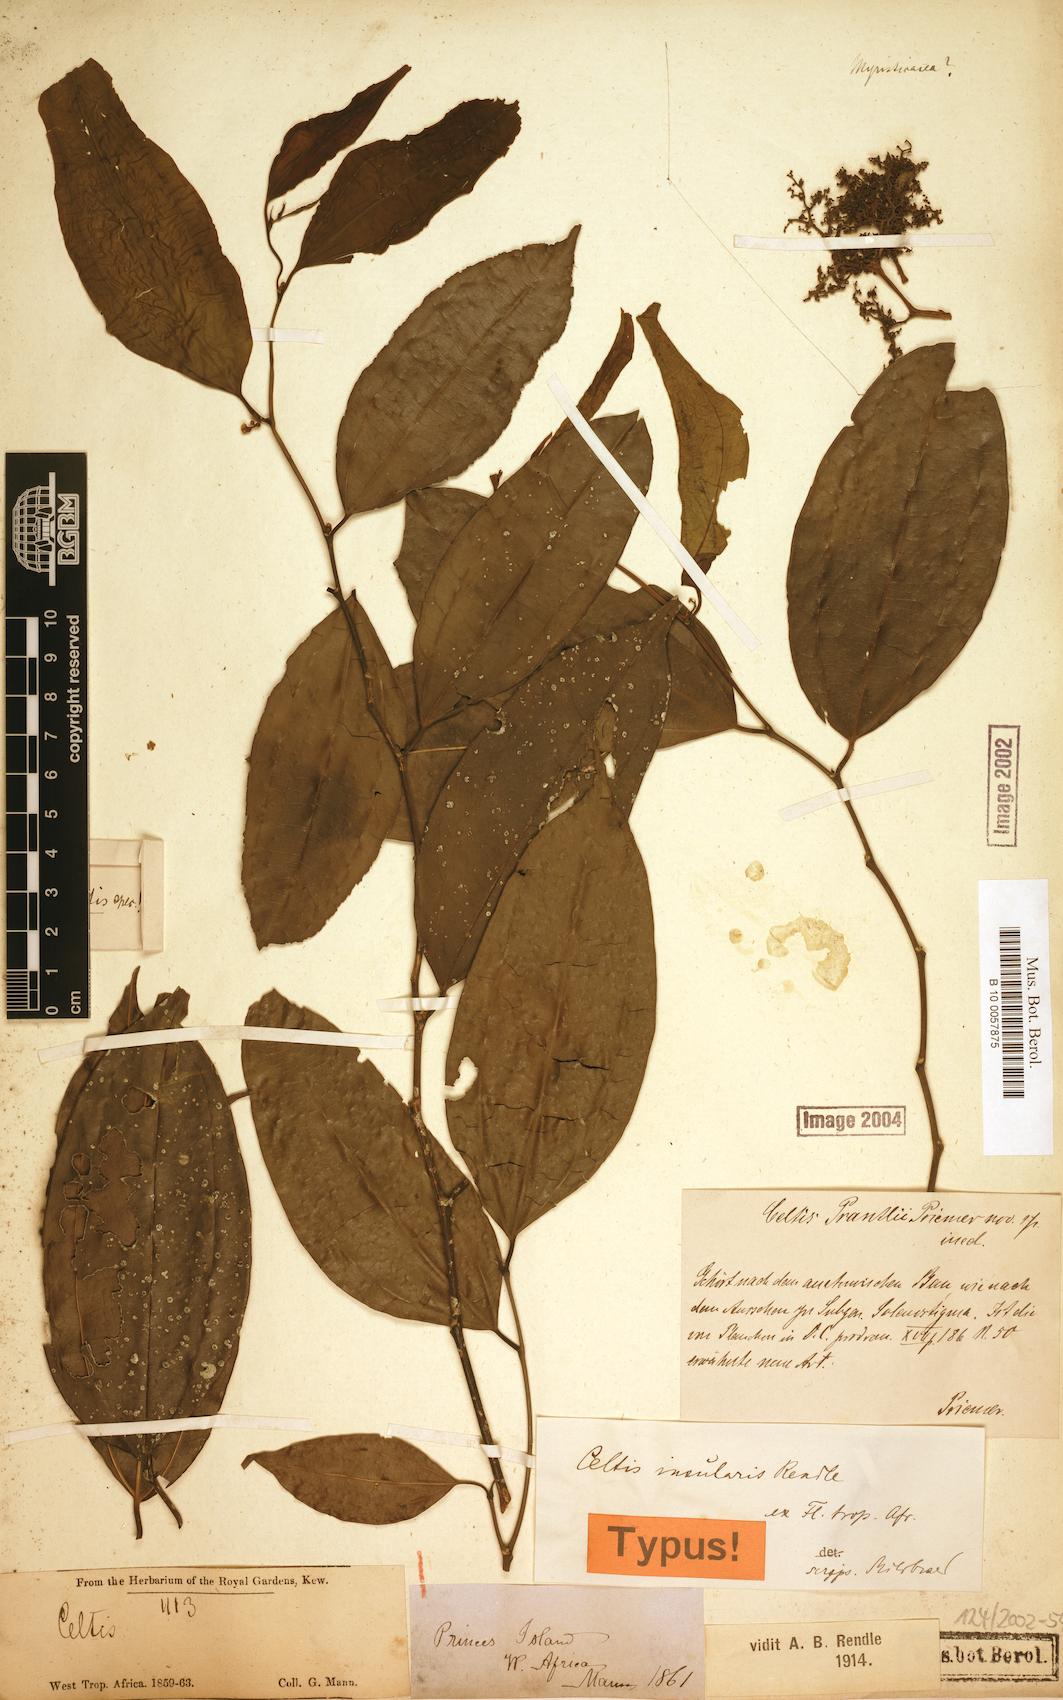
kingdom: Plantae
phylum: Tracheophyta
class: Magnoliopsida
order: Rosales
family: Cannabaceae
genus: Celtis
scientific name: Celtis philippensis
